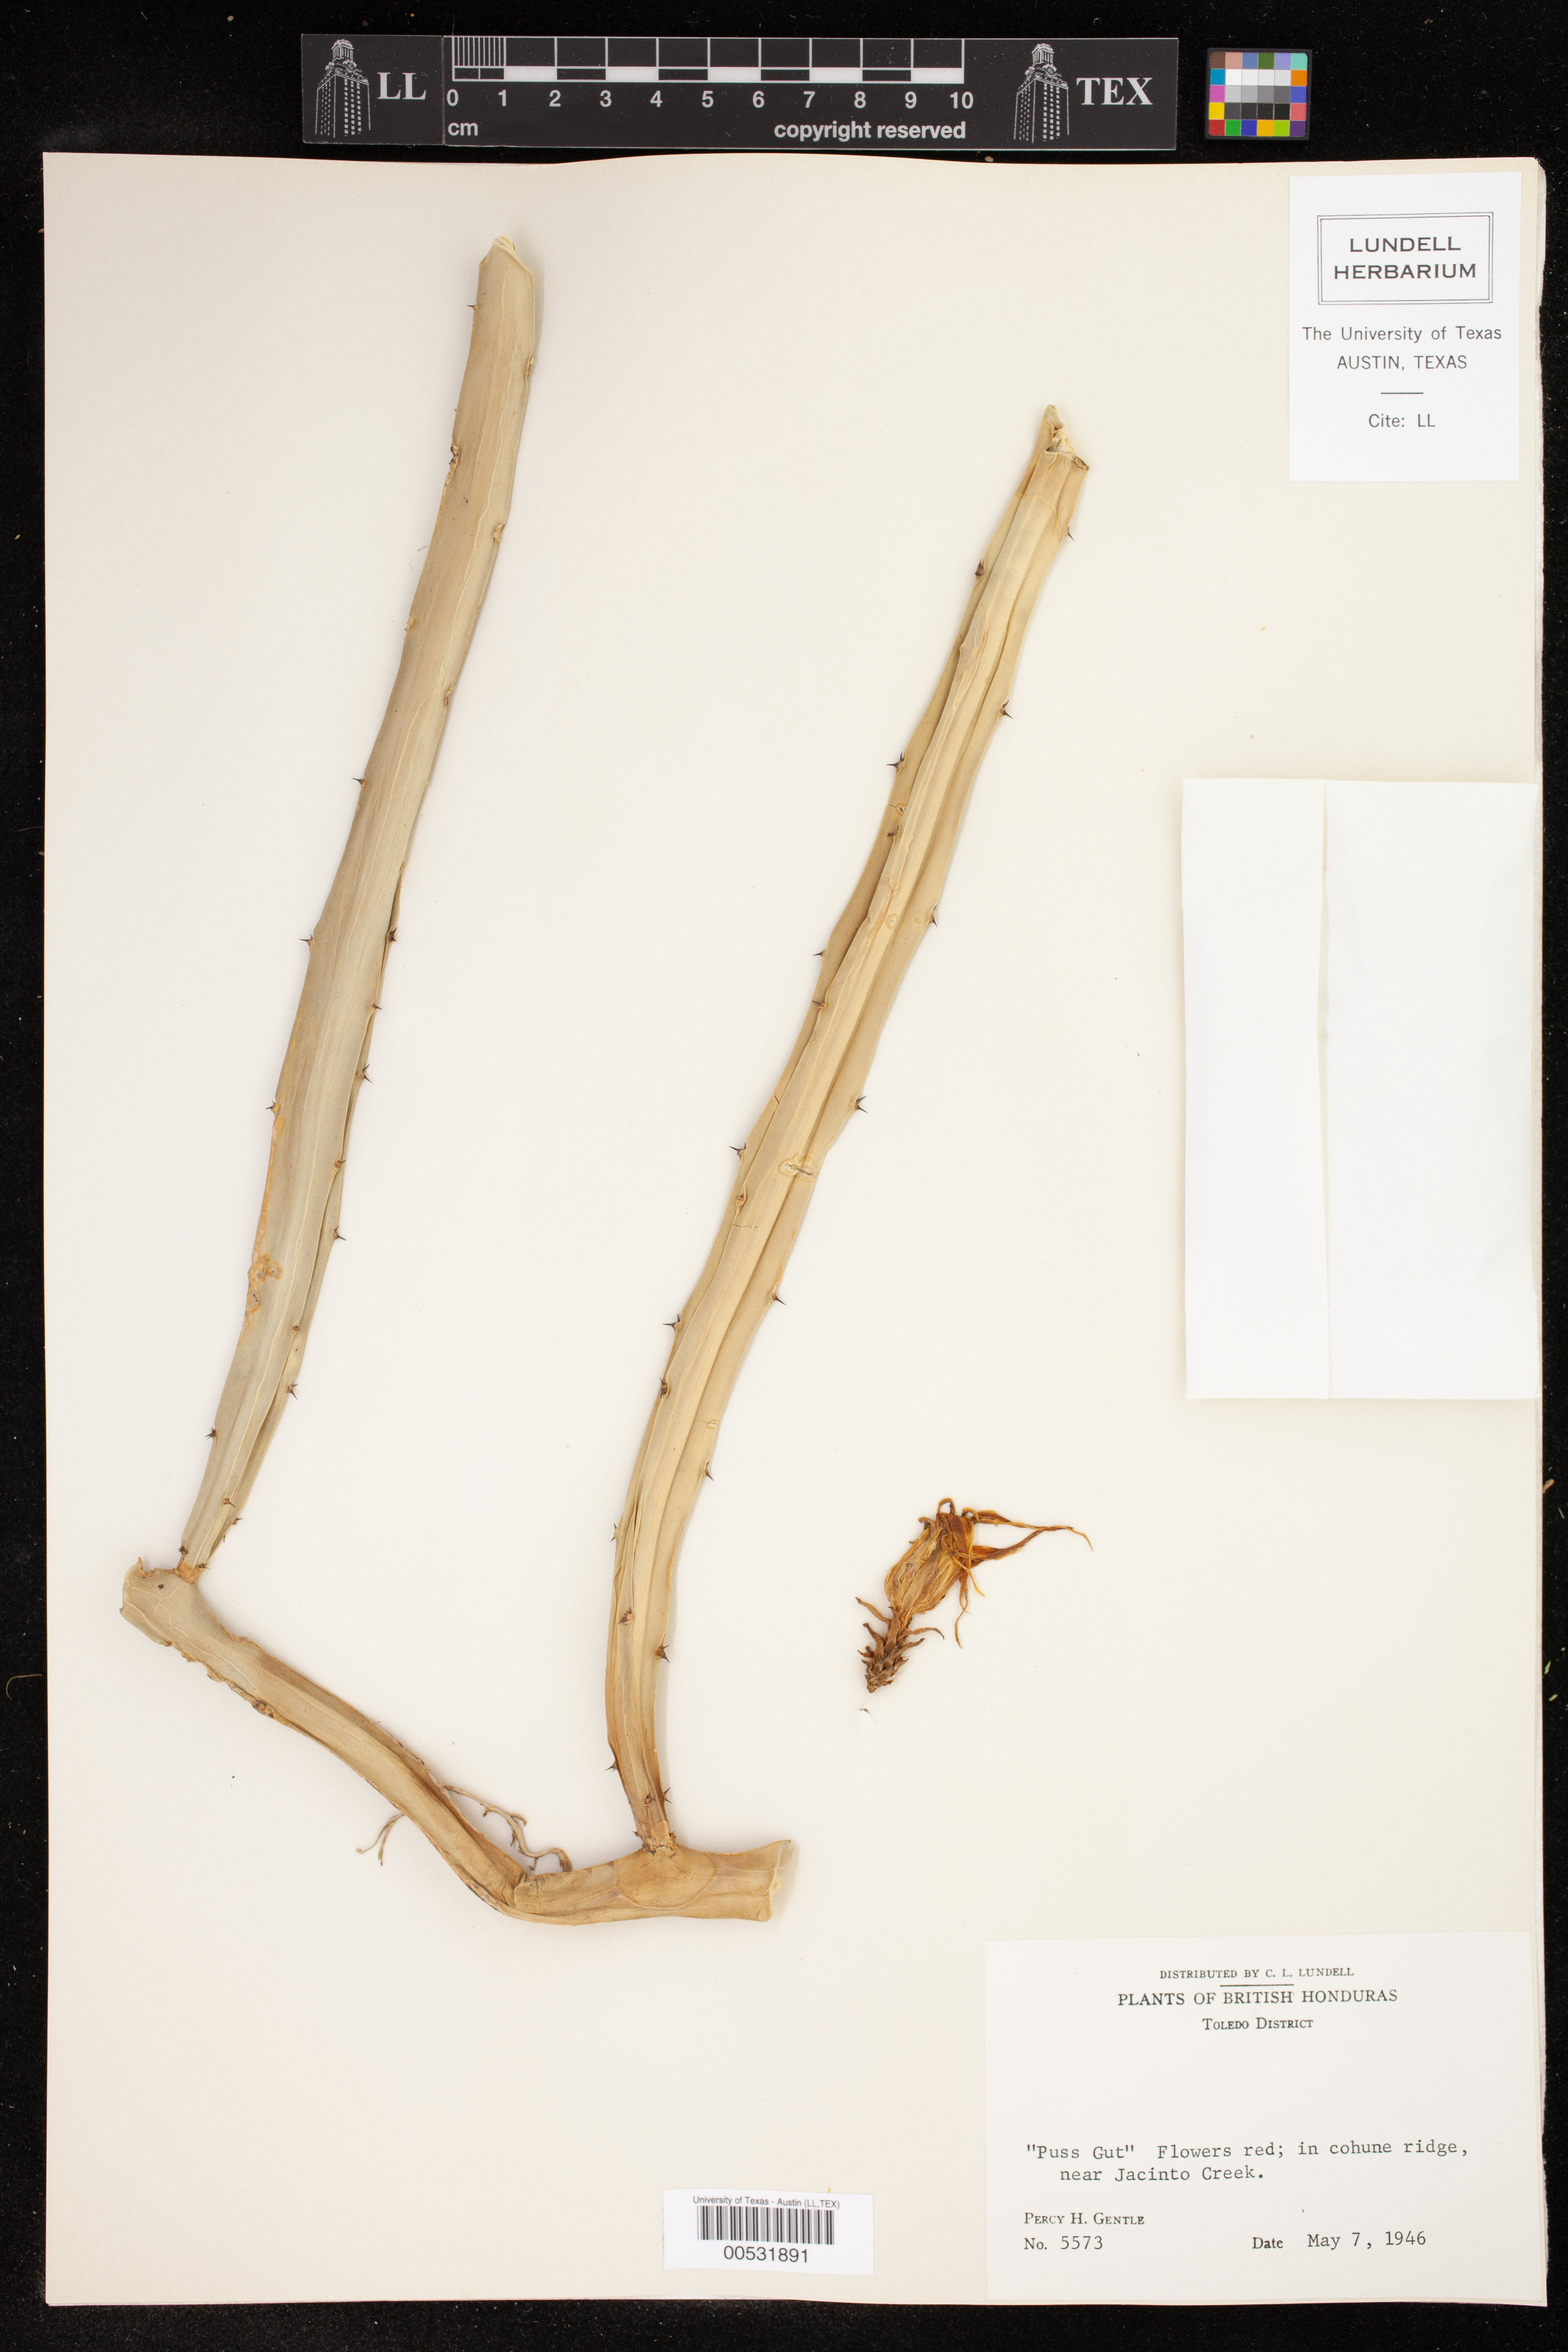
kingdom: Plantae
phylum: Tracheophyta
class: Magnoliopsida
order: Caryophyllales
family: Cactaceae
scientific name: Cactaceae
